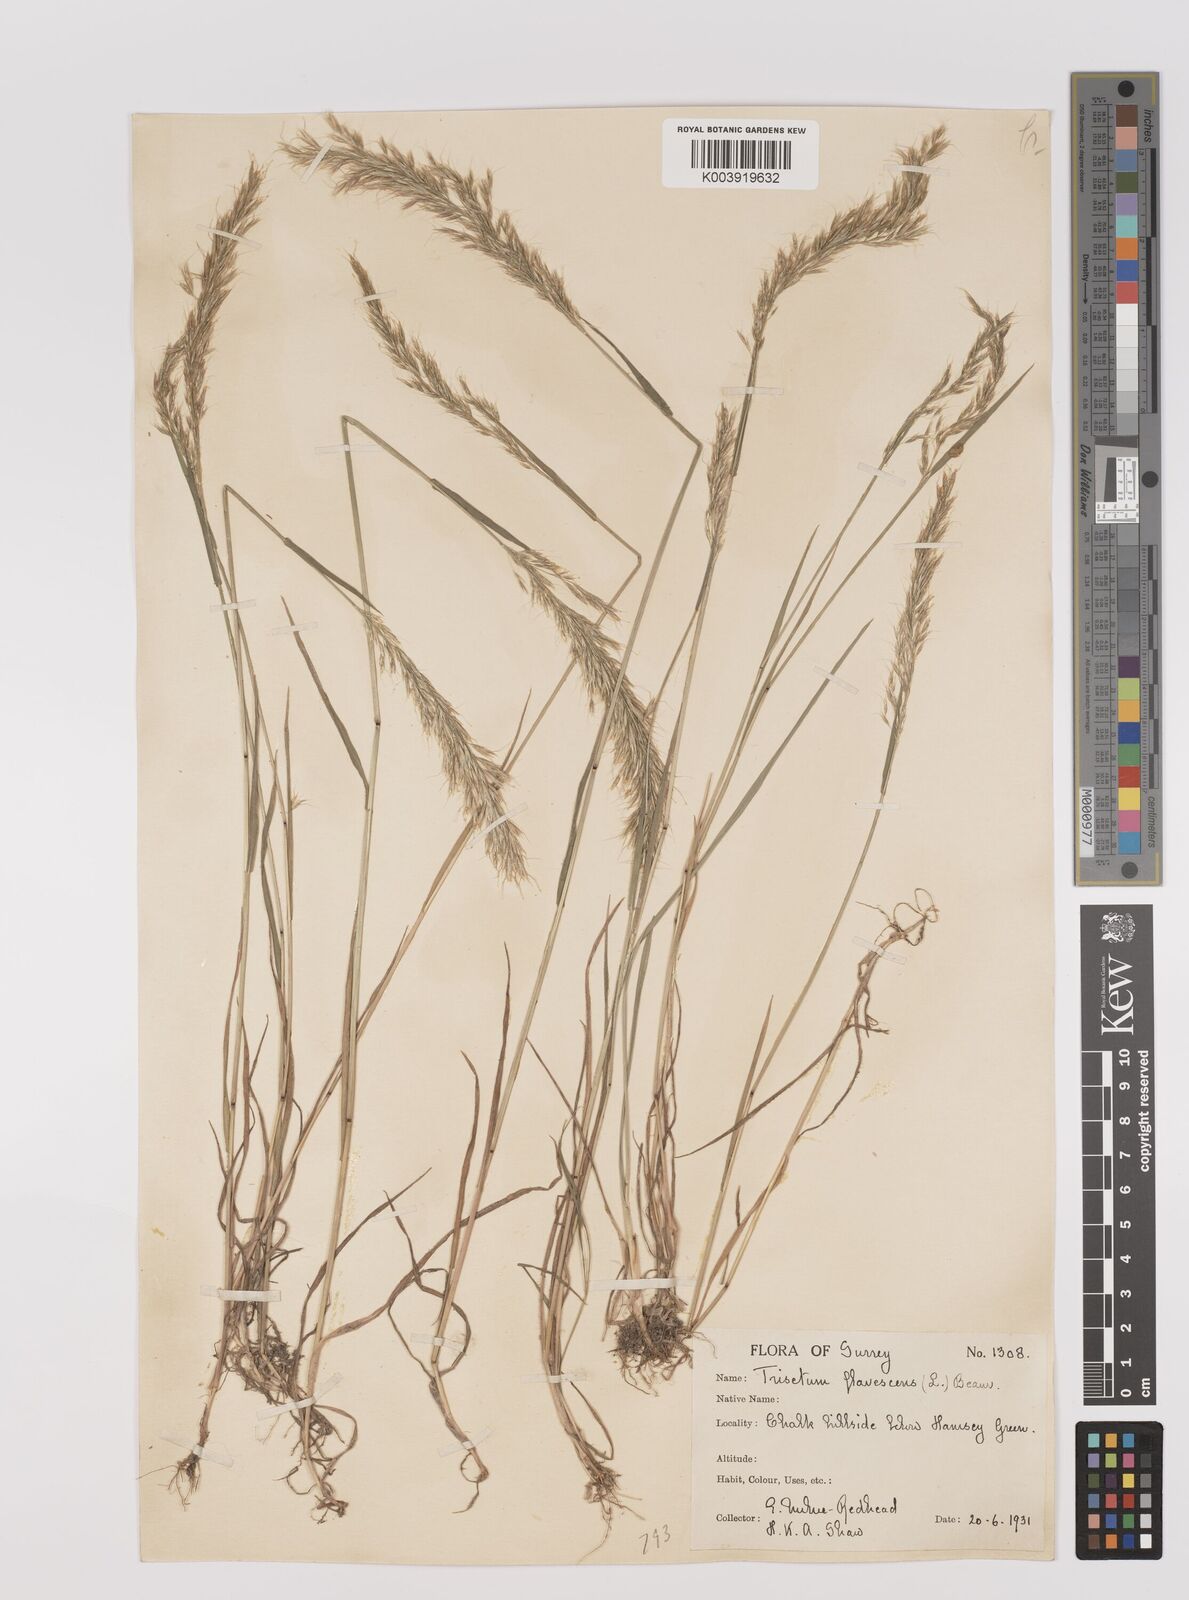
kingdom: Plantae
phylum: Tracheophyta
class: Liliopsida
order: Poales
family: Poaceae
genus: Trisetum
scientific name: Trisetum flavescens
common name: Yellow oat-grass
